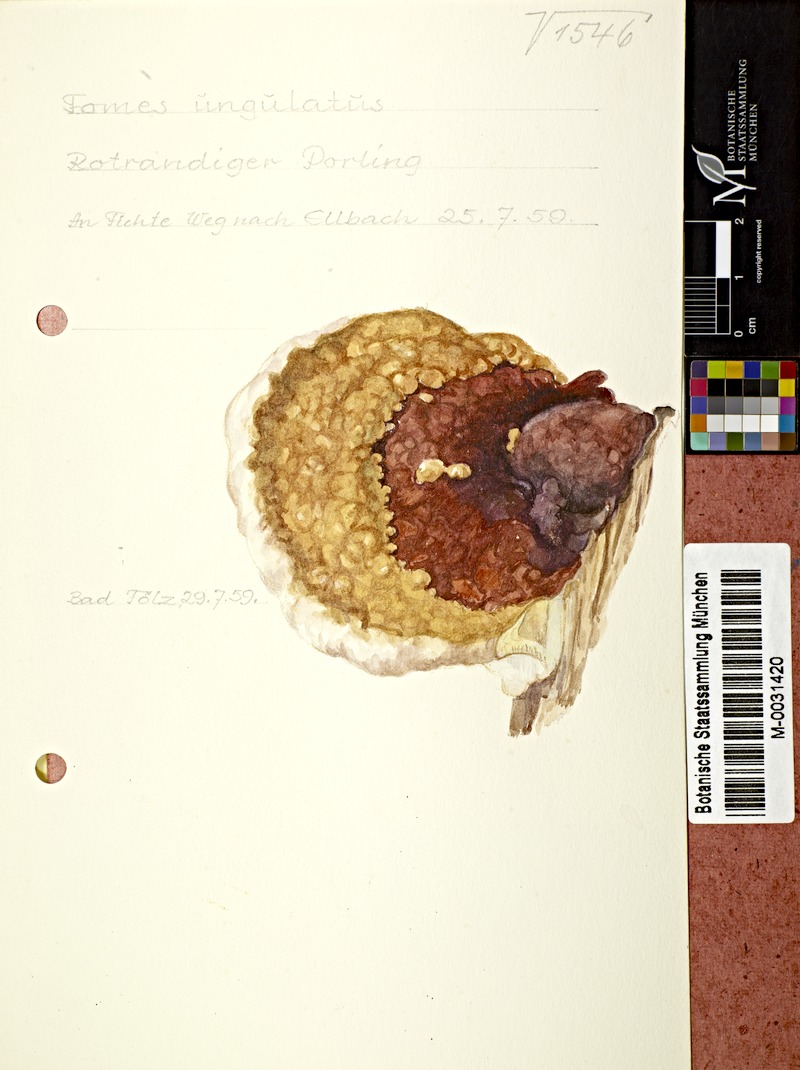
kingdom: Fungi
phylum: Basidiomycota
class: Agaricomycetes
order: Polyporales
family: Fomitopsidaceae
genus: Fomitopsis
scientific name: Fomitopsis pinicola
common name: Red-belted bracket
